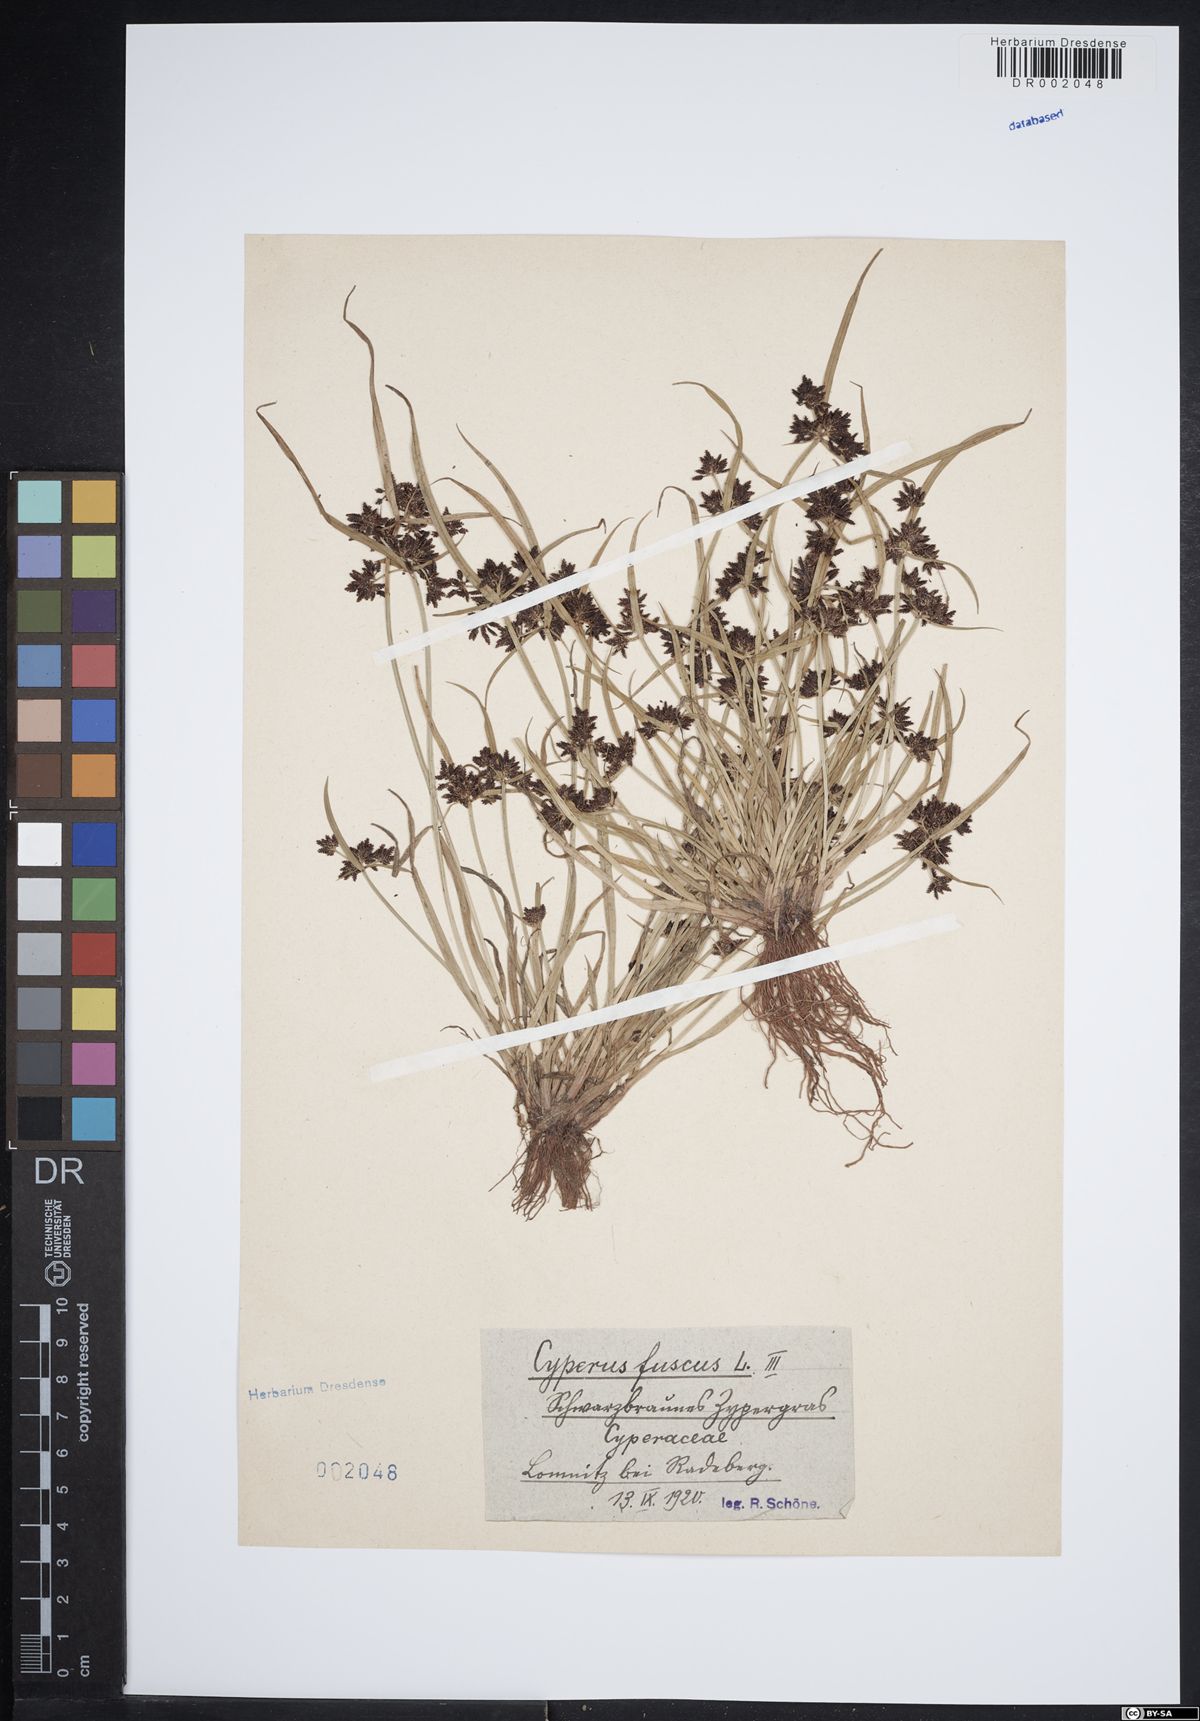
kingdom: Plantae
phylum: Tracheophyta
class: Liliopsida
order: Poales
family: Cyperaceae
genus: Cyperus
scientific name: Cyperus fuscus
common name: Brown galingale
